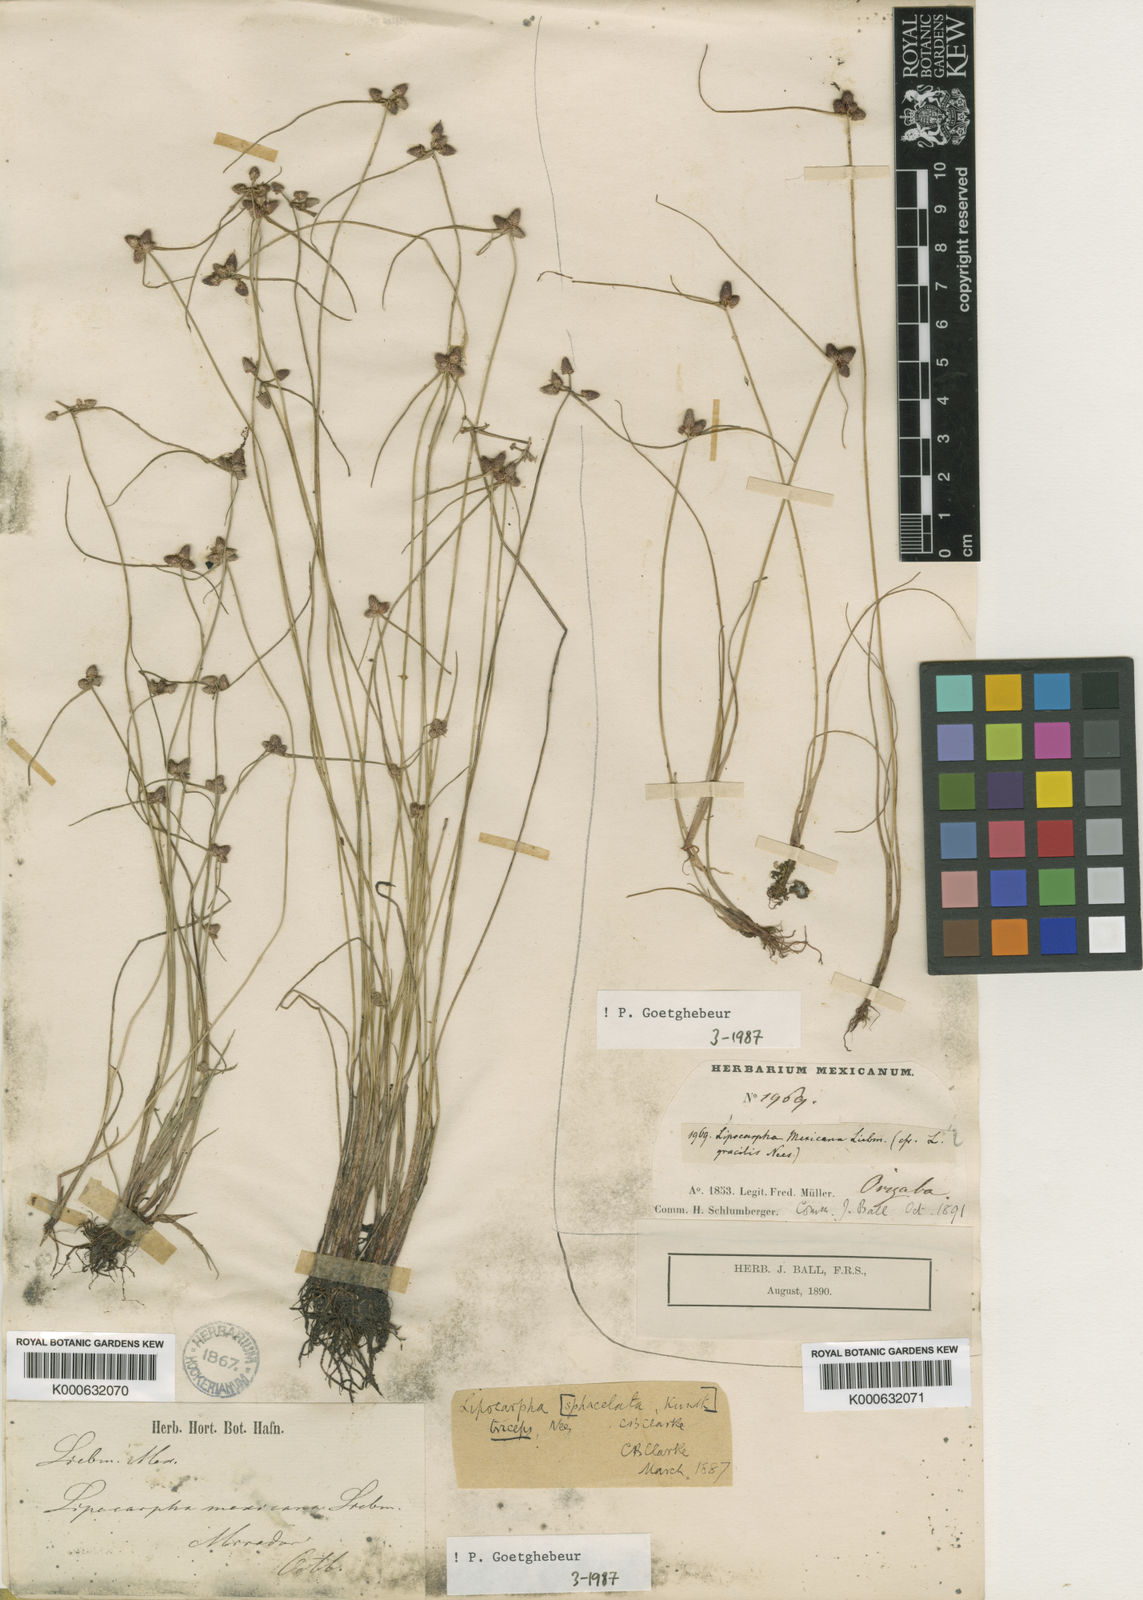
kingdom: Plantae
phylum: Tracheophyta
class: Liliopsida
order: Poales
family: Cyperaceae
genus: Cyperus
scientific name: Cyperus lipomexicanus
